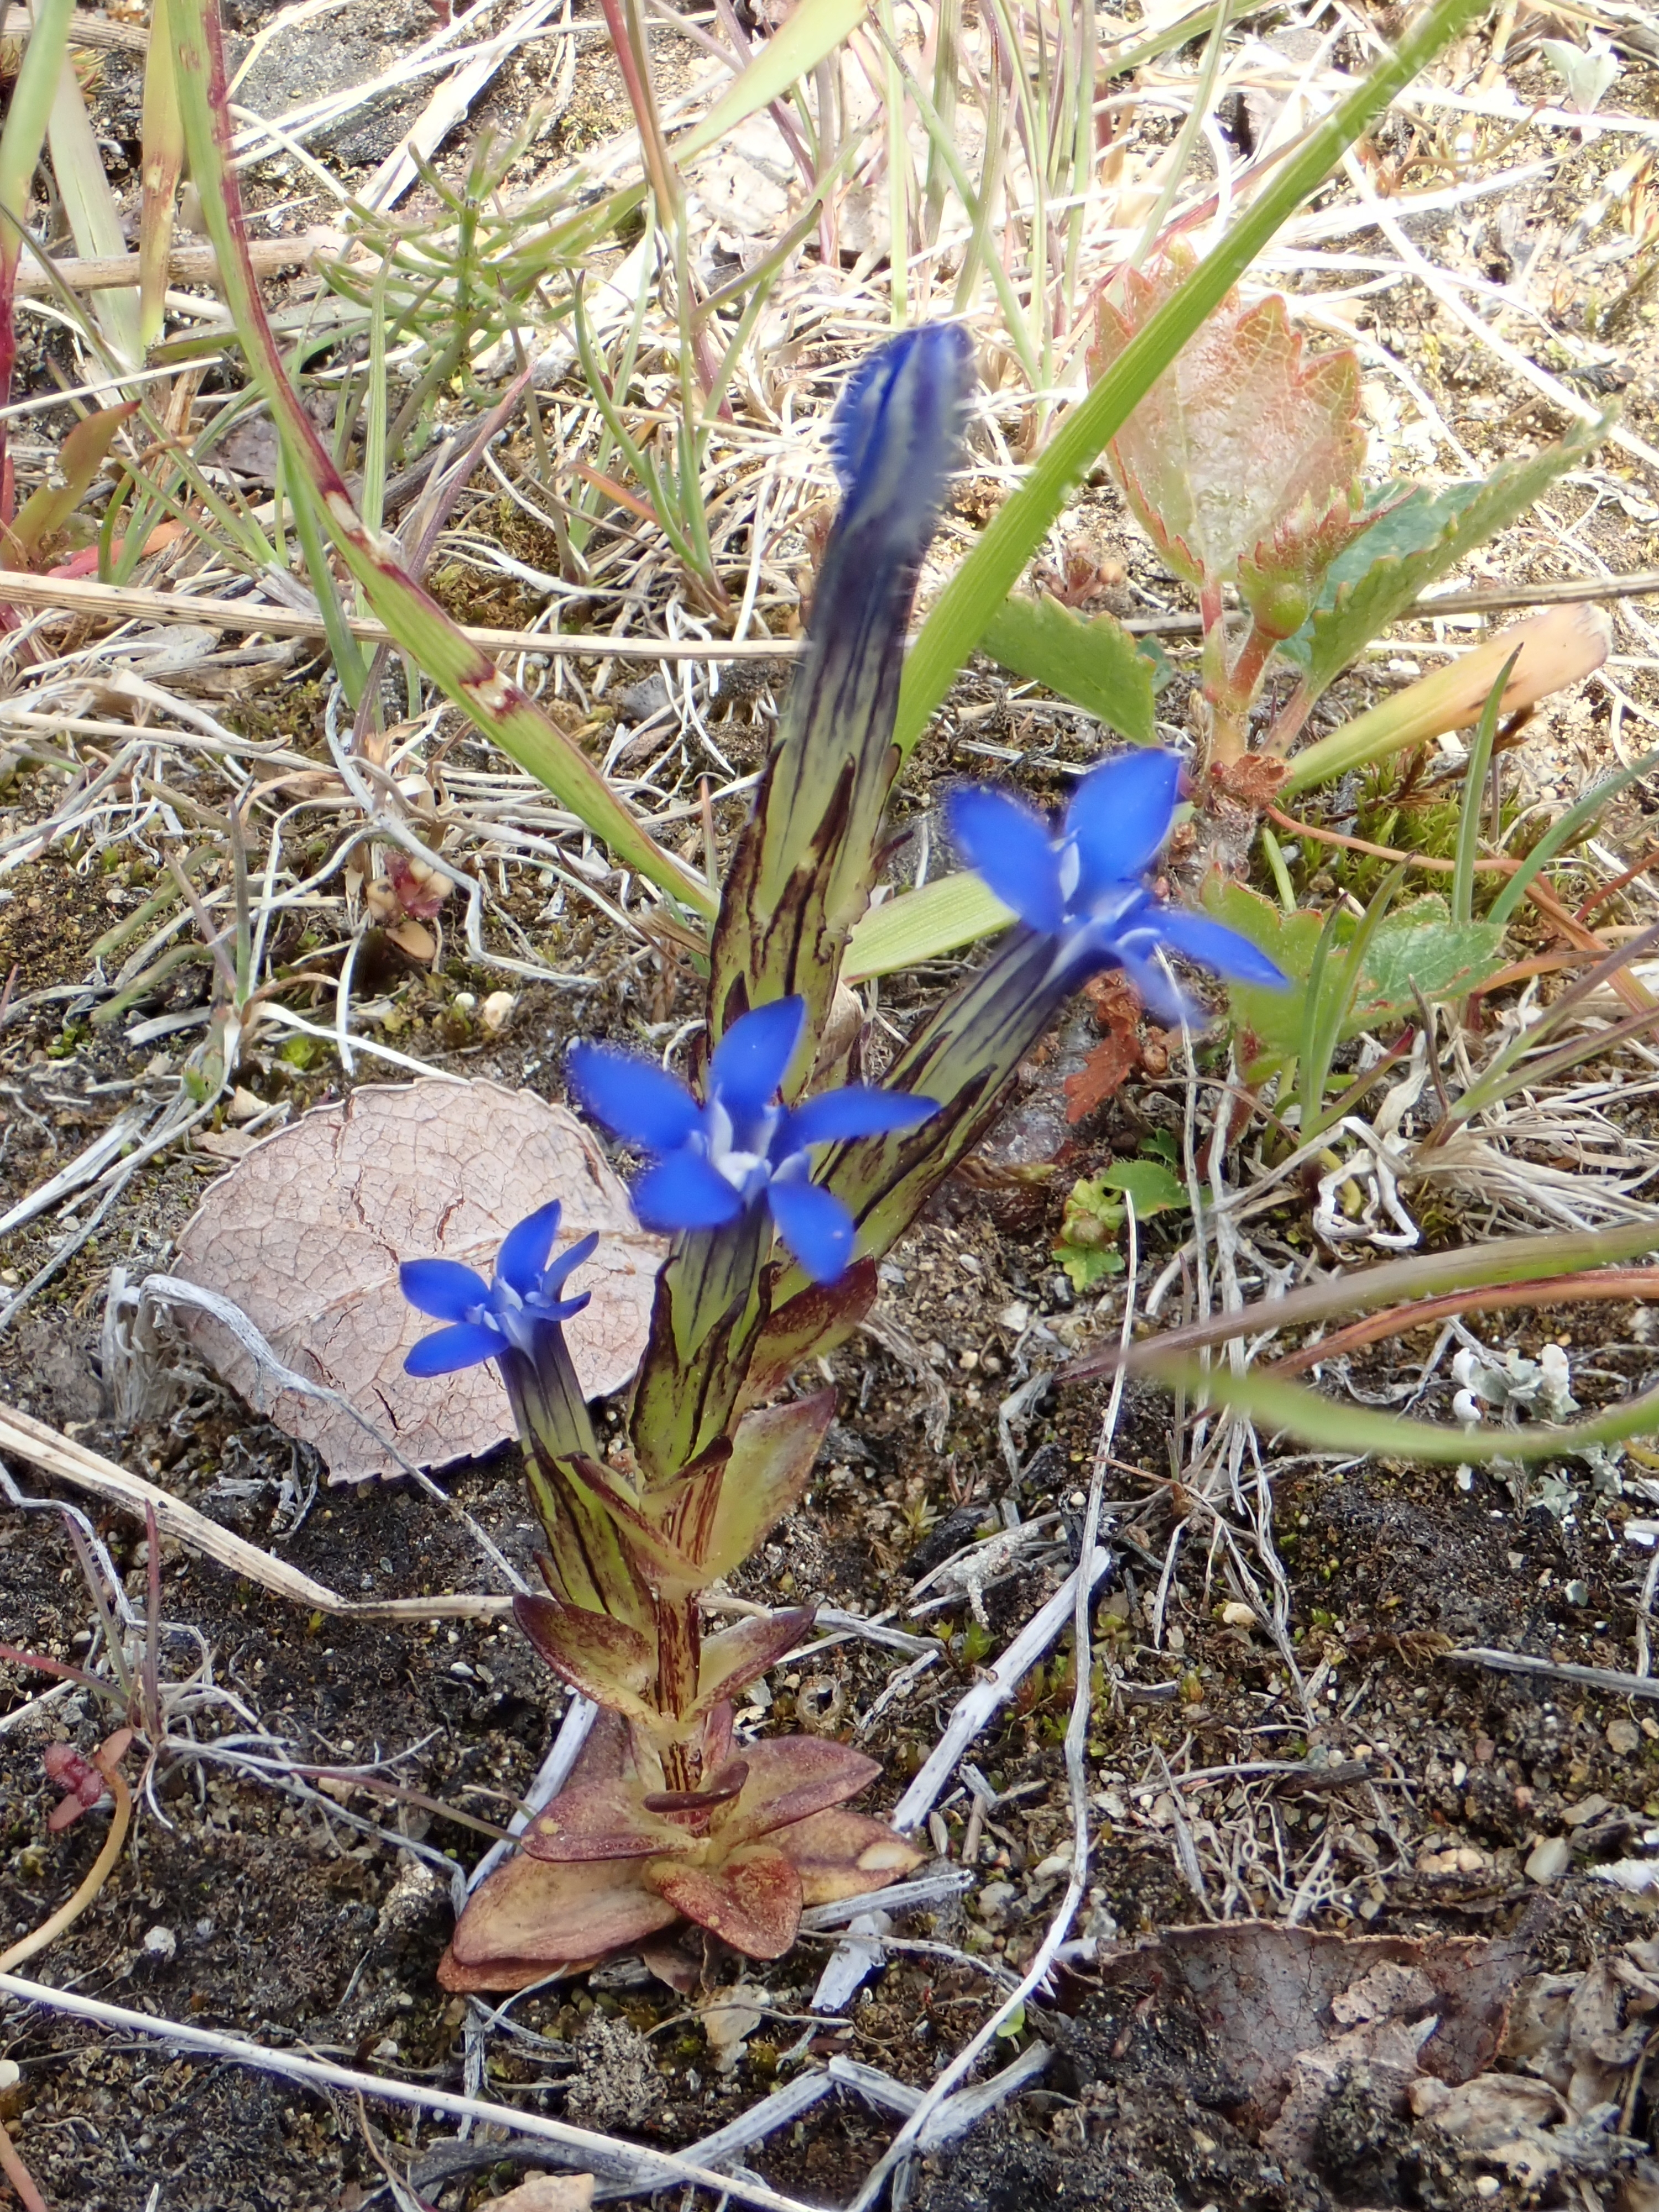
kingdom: Plantae
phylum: Tracheophyta
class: Magnoliopsida
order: Gentianales
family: Gentianaceae
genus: Gentiana
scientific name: Gentiana nivalis
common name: Alpine gentian
